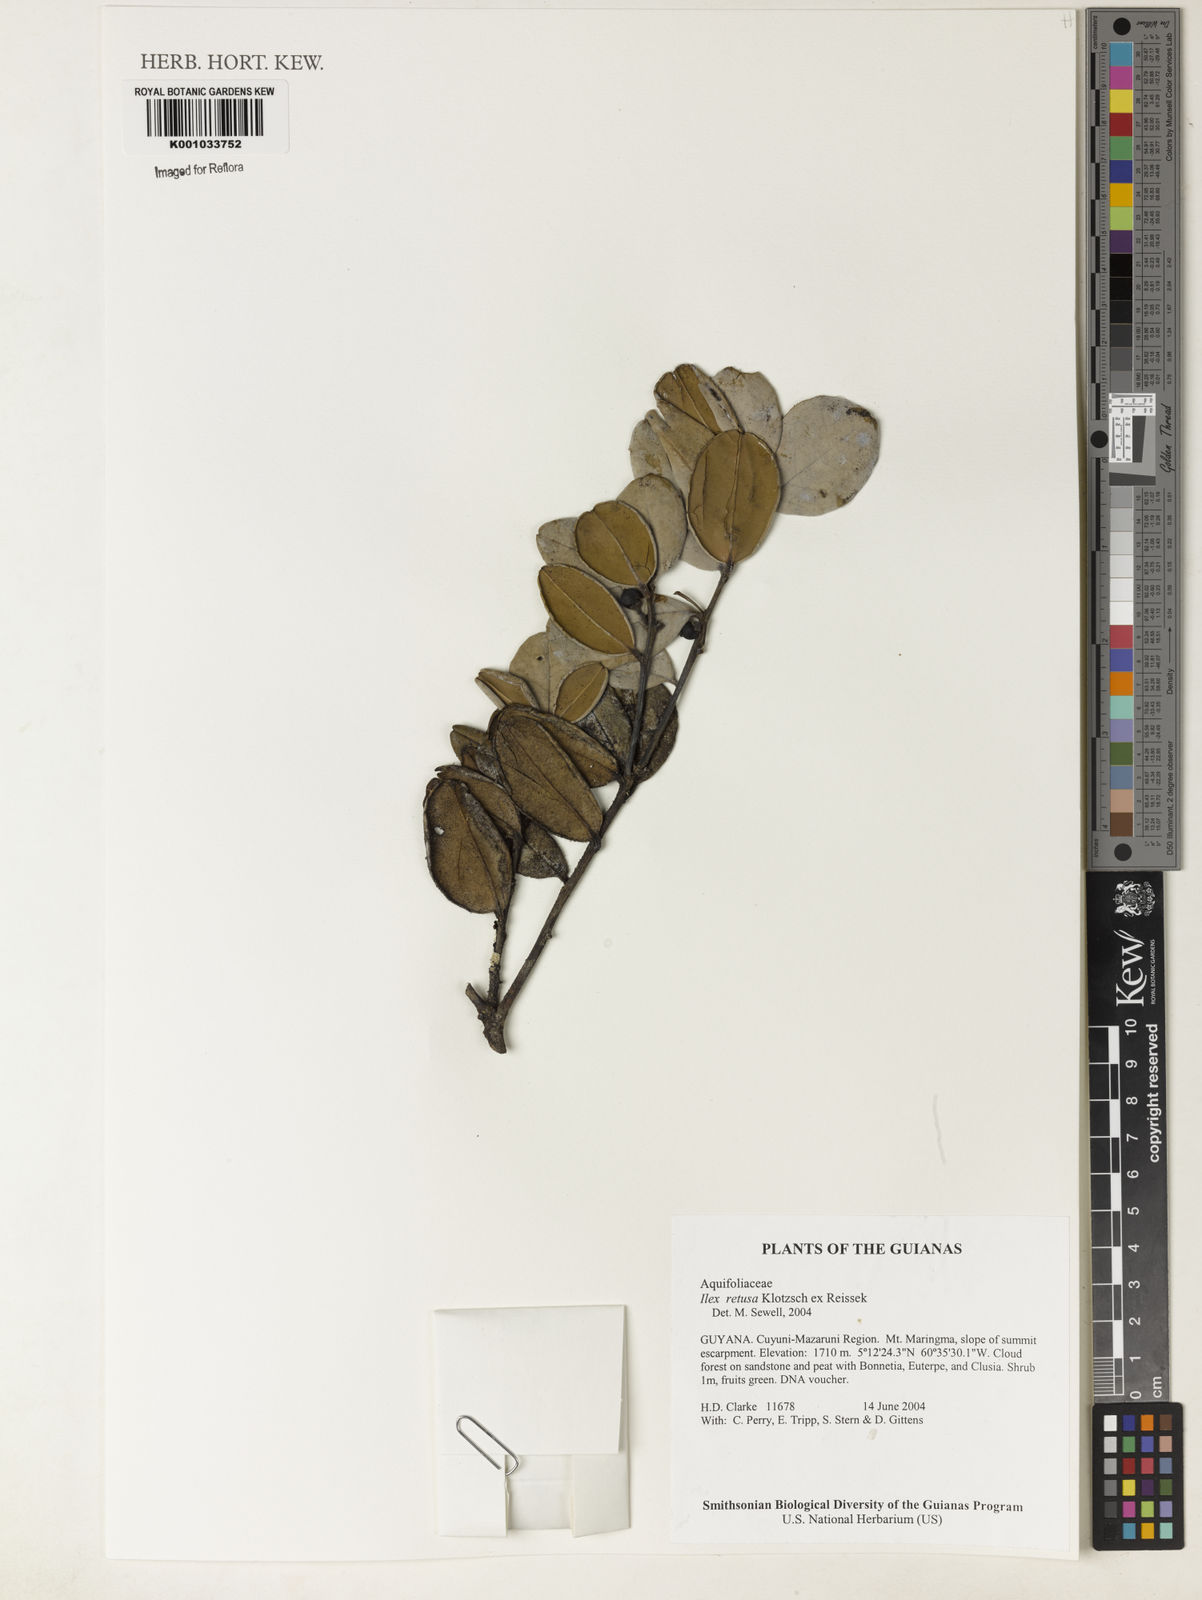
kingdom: Plantae
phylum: Tracheophyta
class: Magnoliopsida
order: Aquifoliales
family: Aquifoliaceae
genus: Ilex
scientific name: Ilex
